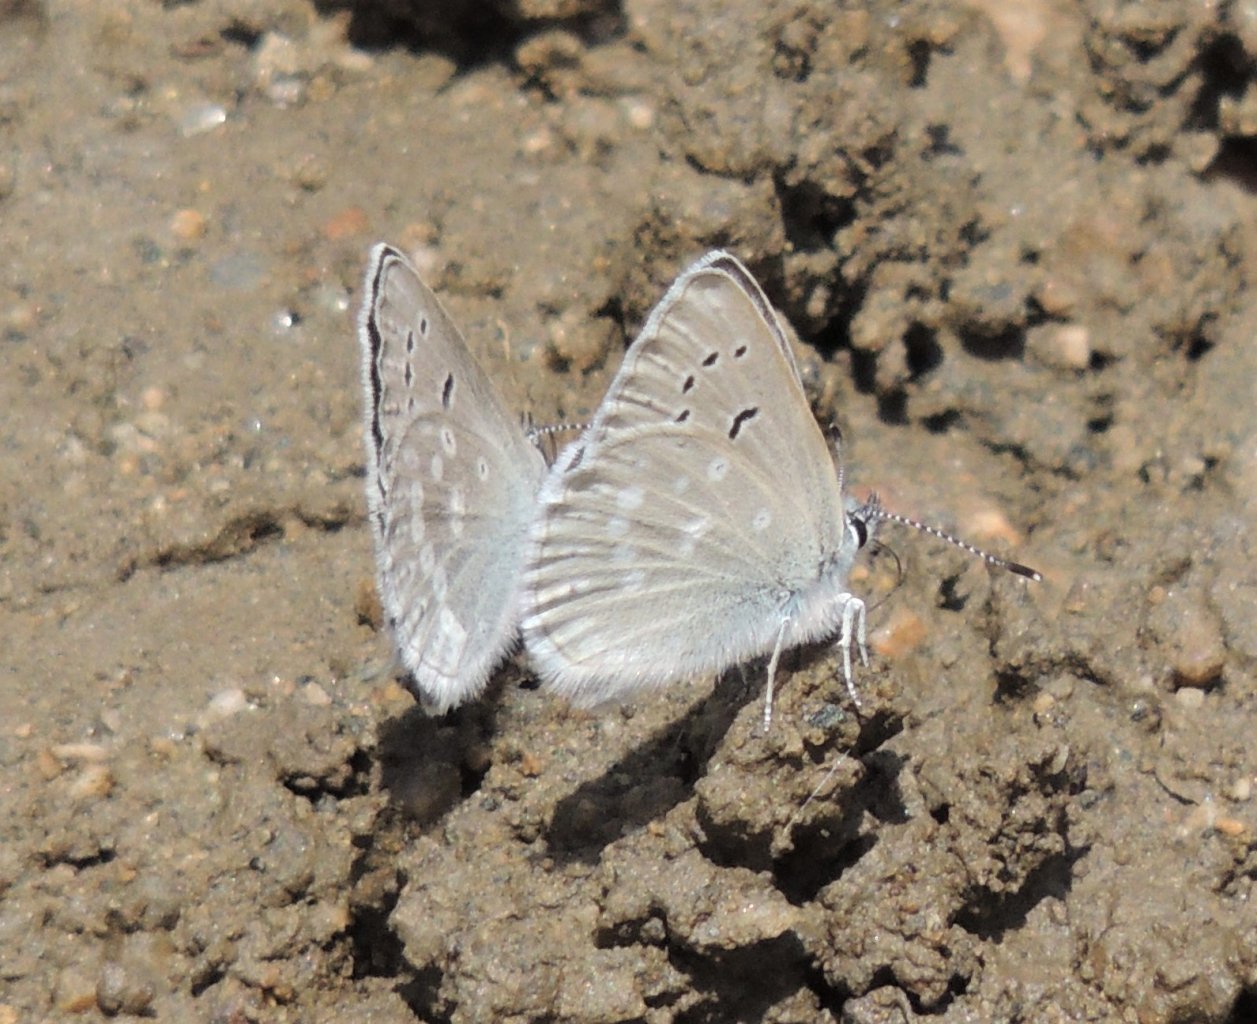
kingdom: Animalia
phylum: Arthropoda
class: Insecta
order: Lepidoptera
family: Lycaenidae
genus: Icaricia
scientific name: Icaricia icarioides
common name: Boisduval's Blue
